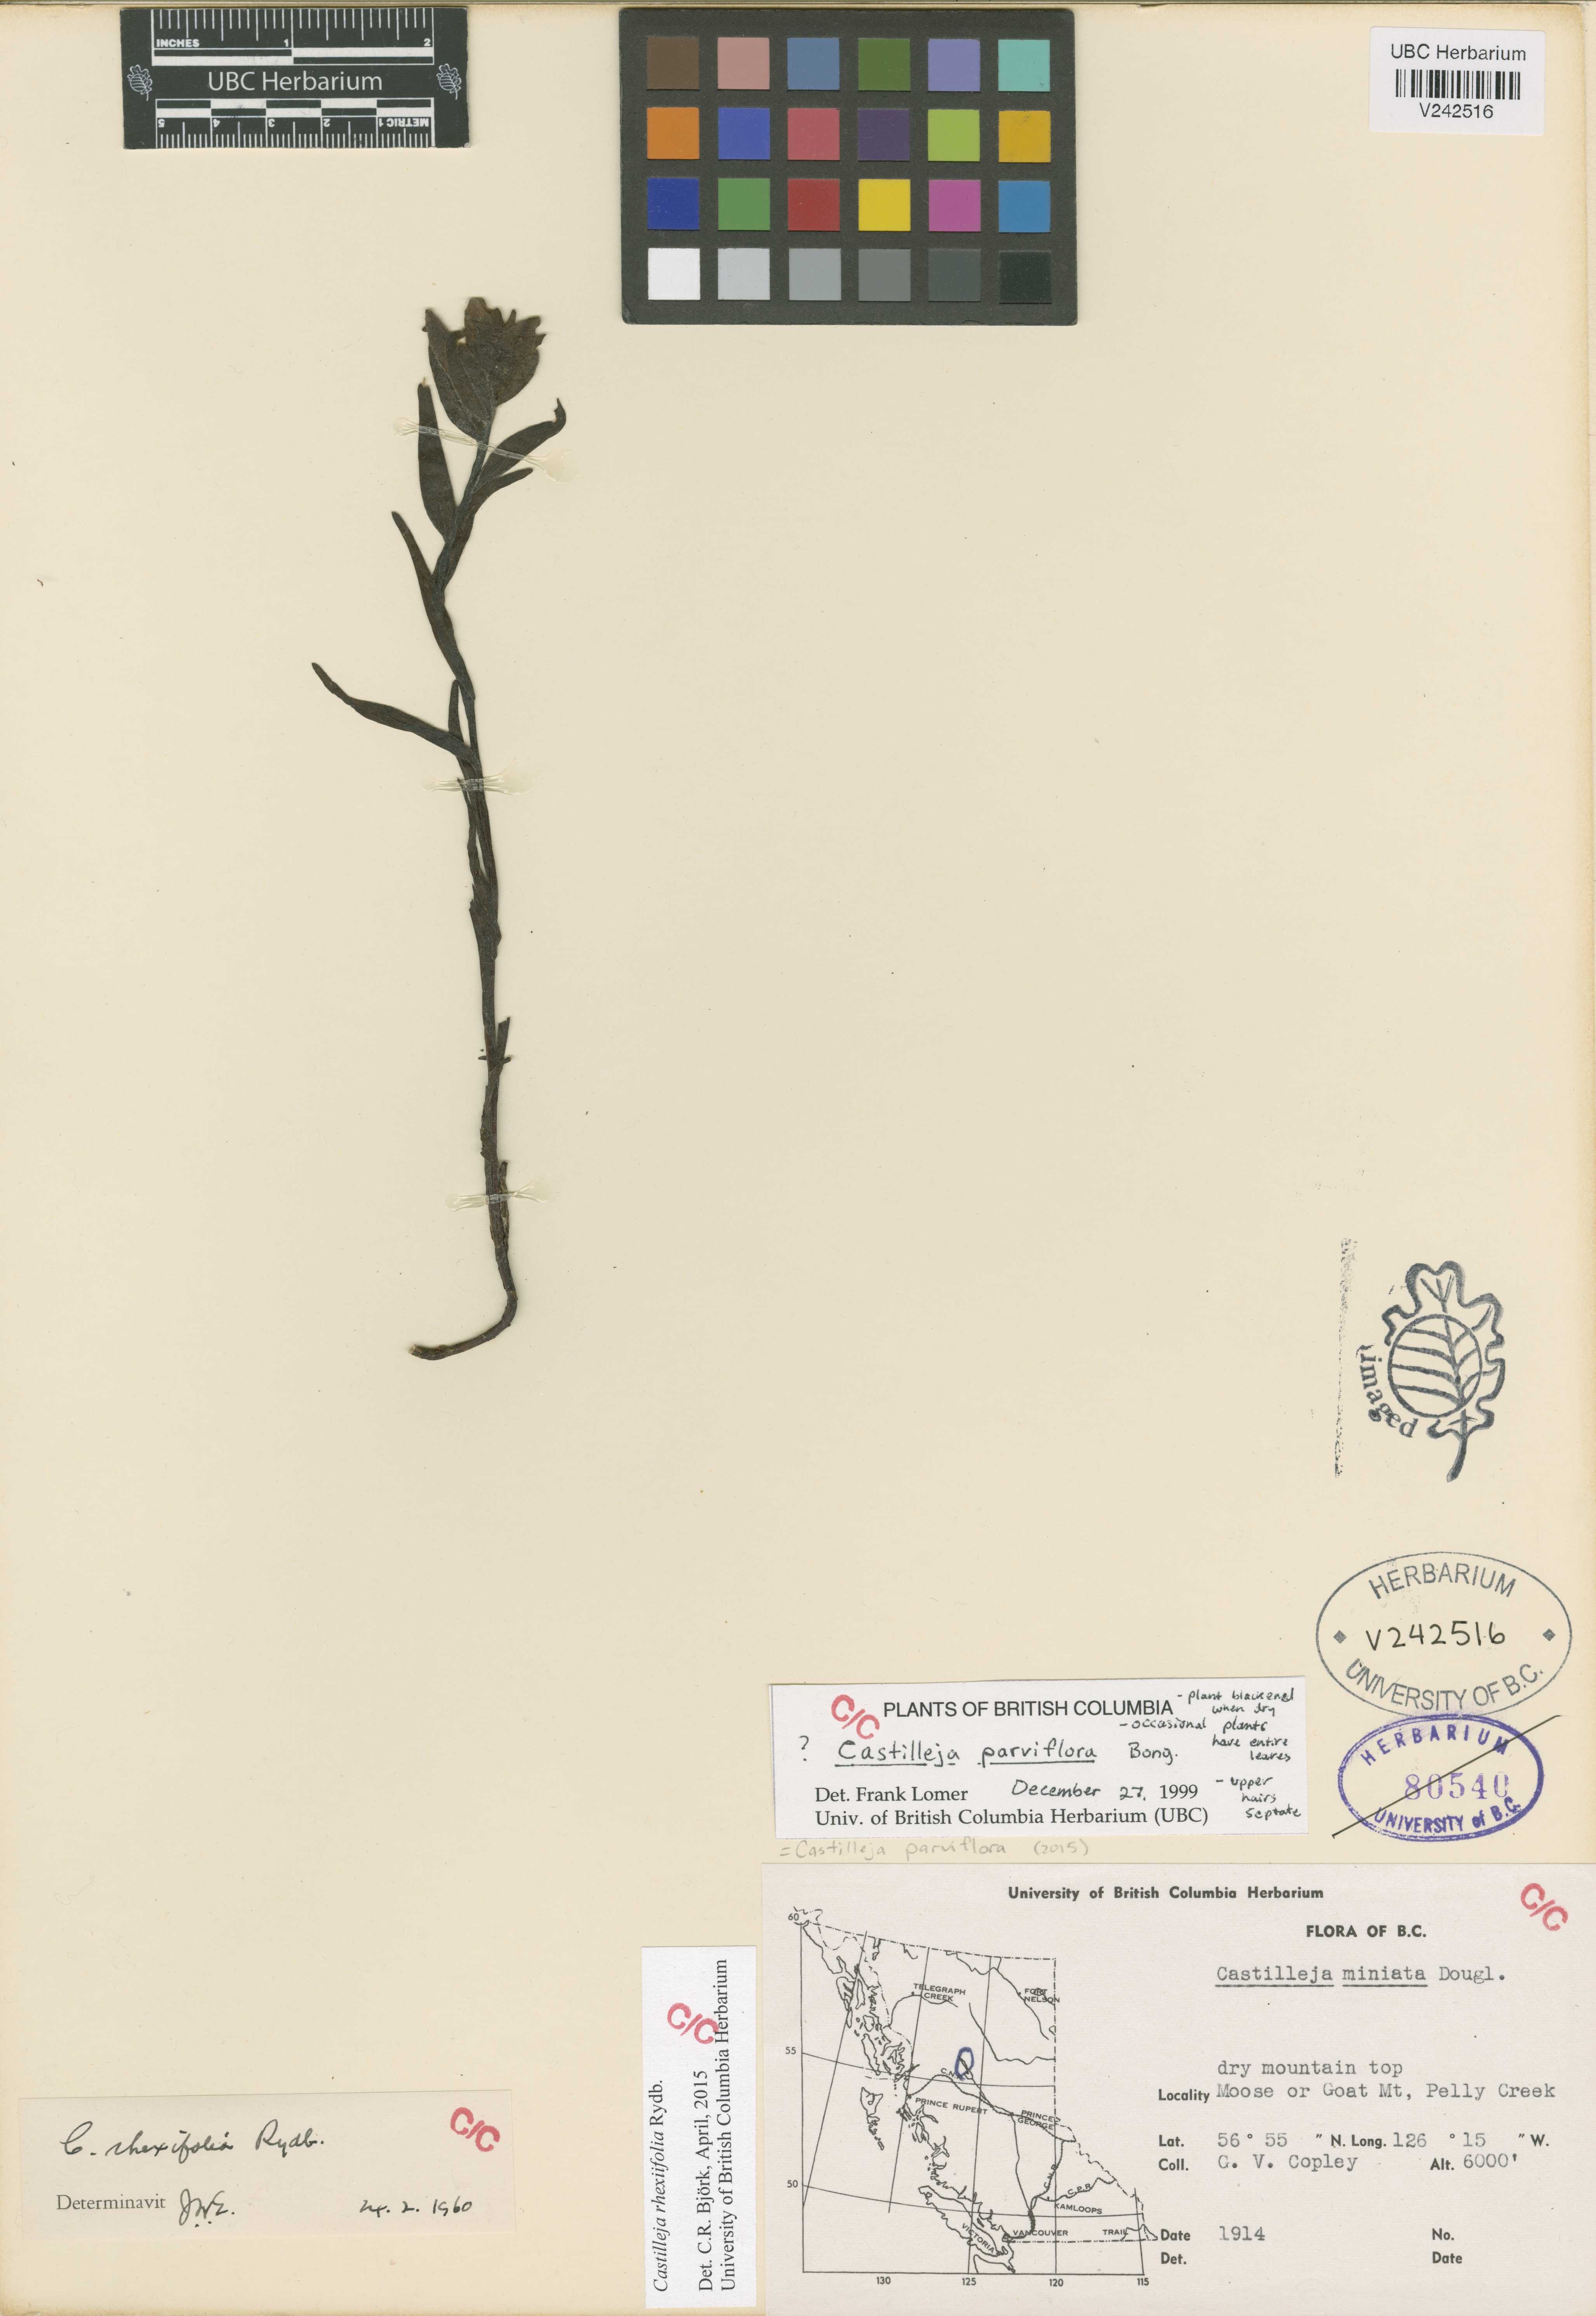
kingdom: Plantae
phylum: Tracheophyta
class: Magnoliopsida
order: Lamiales
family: Orobanchaceae
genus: Castilleja
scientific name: Castilleja rhexifolia
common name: Rocky mountain paintbrush
